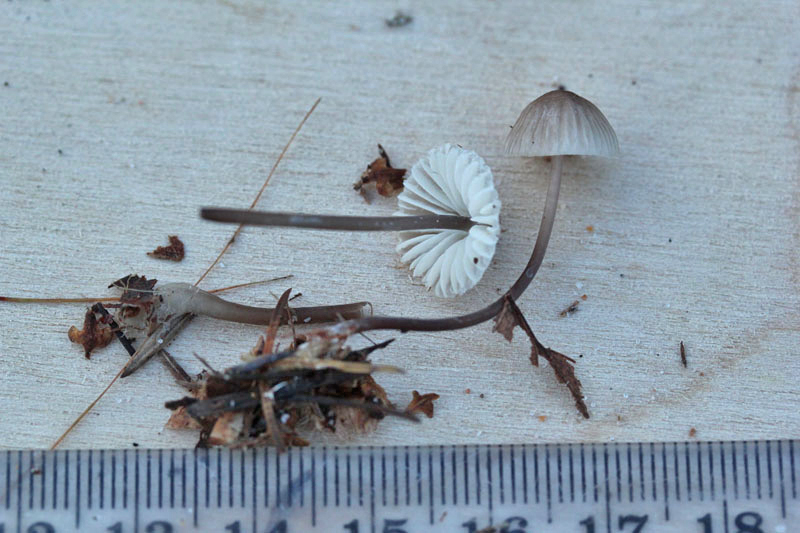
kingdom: Fungi
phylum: Basidiomycota
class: Agaricomycetes
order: Agaricales
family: Mycenaceae
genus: Mycena
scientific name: Mycena galopus
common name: hvidmælket huesvamp
